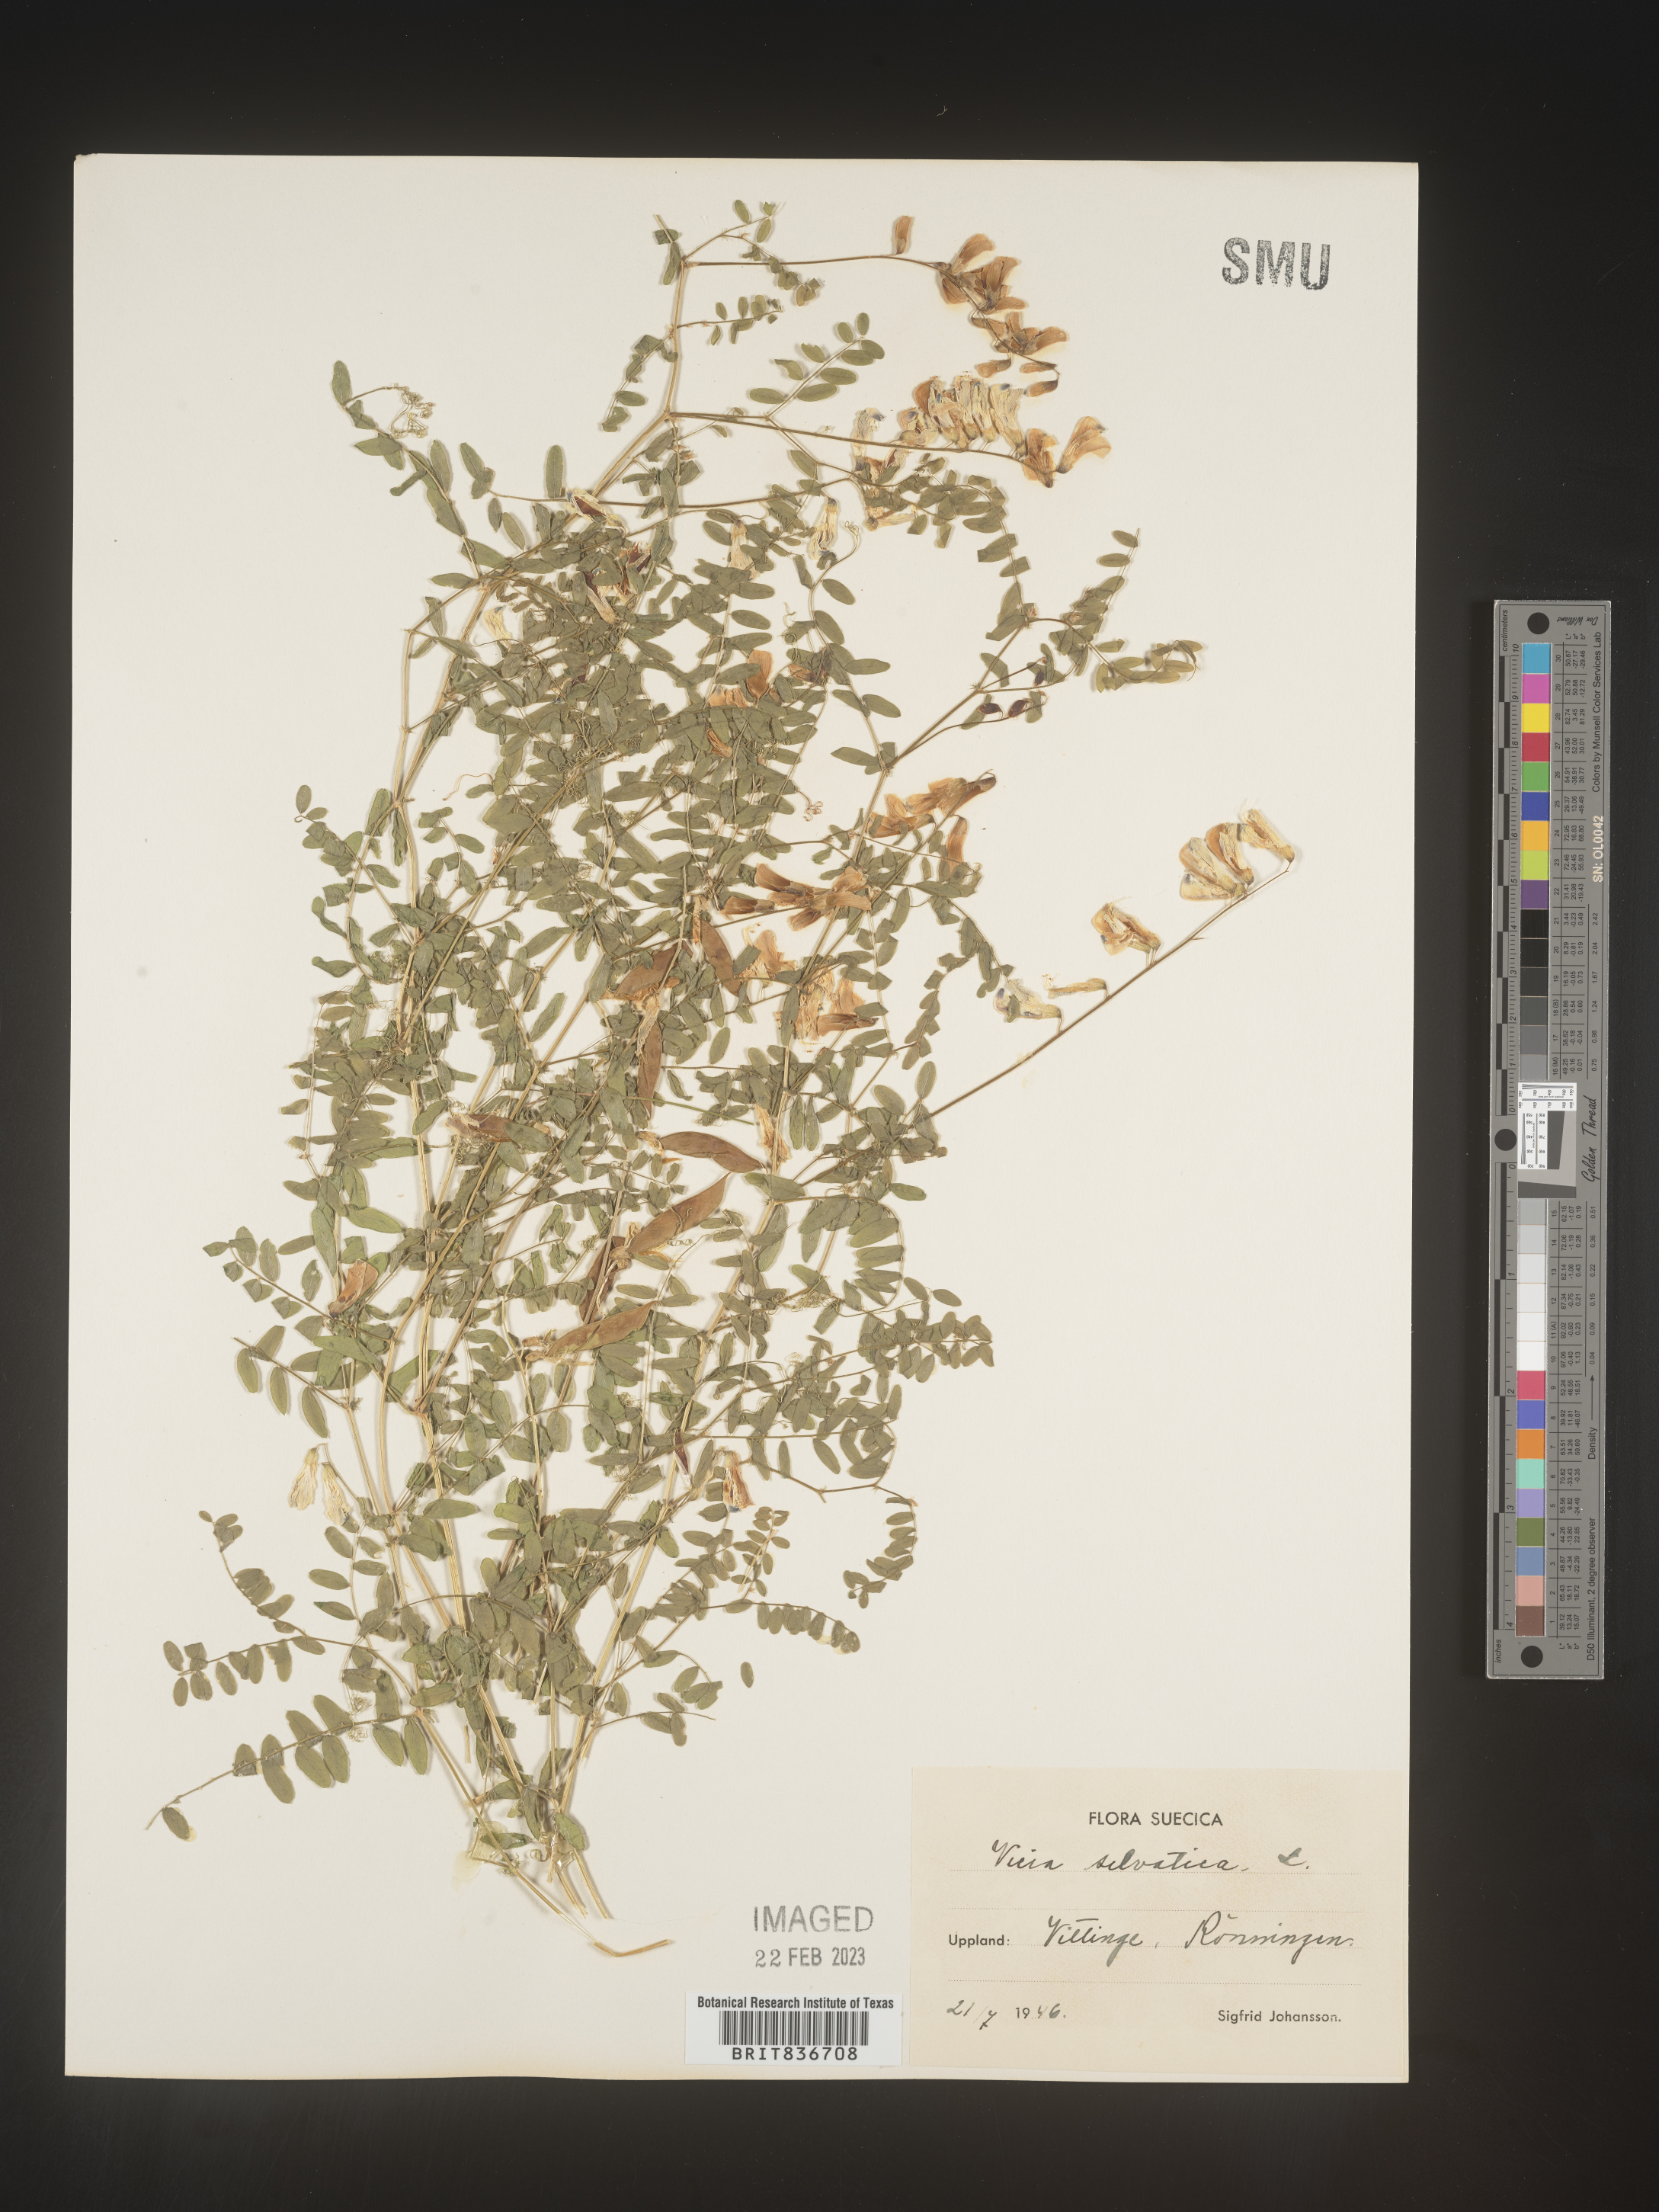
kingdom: Plantae
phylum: Tracheophyta
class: Magnoliopsida
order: Fabales
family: Fabaceae
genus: Vicia
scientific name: Vicia sylvatica
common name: Wood vetch
